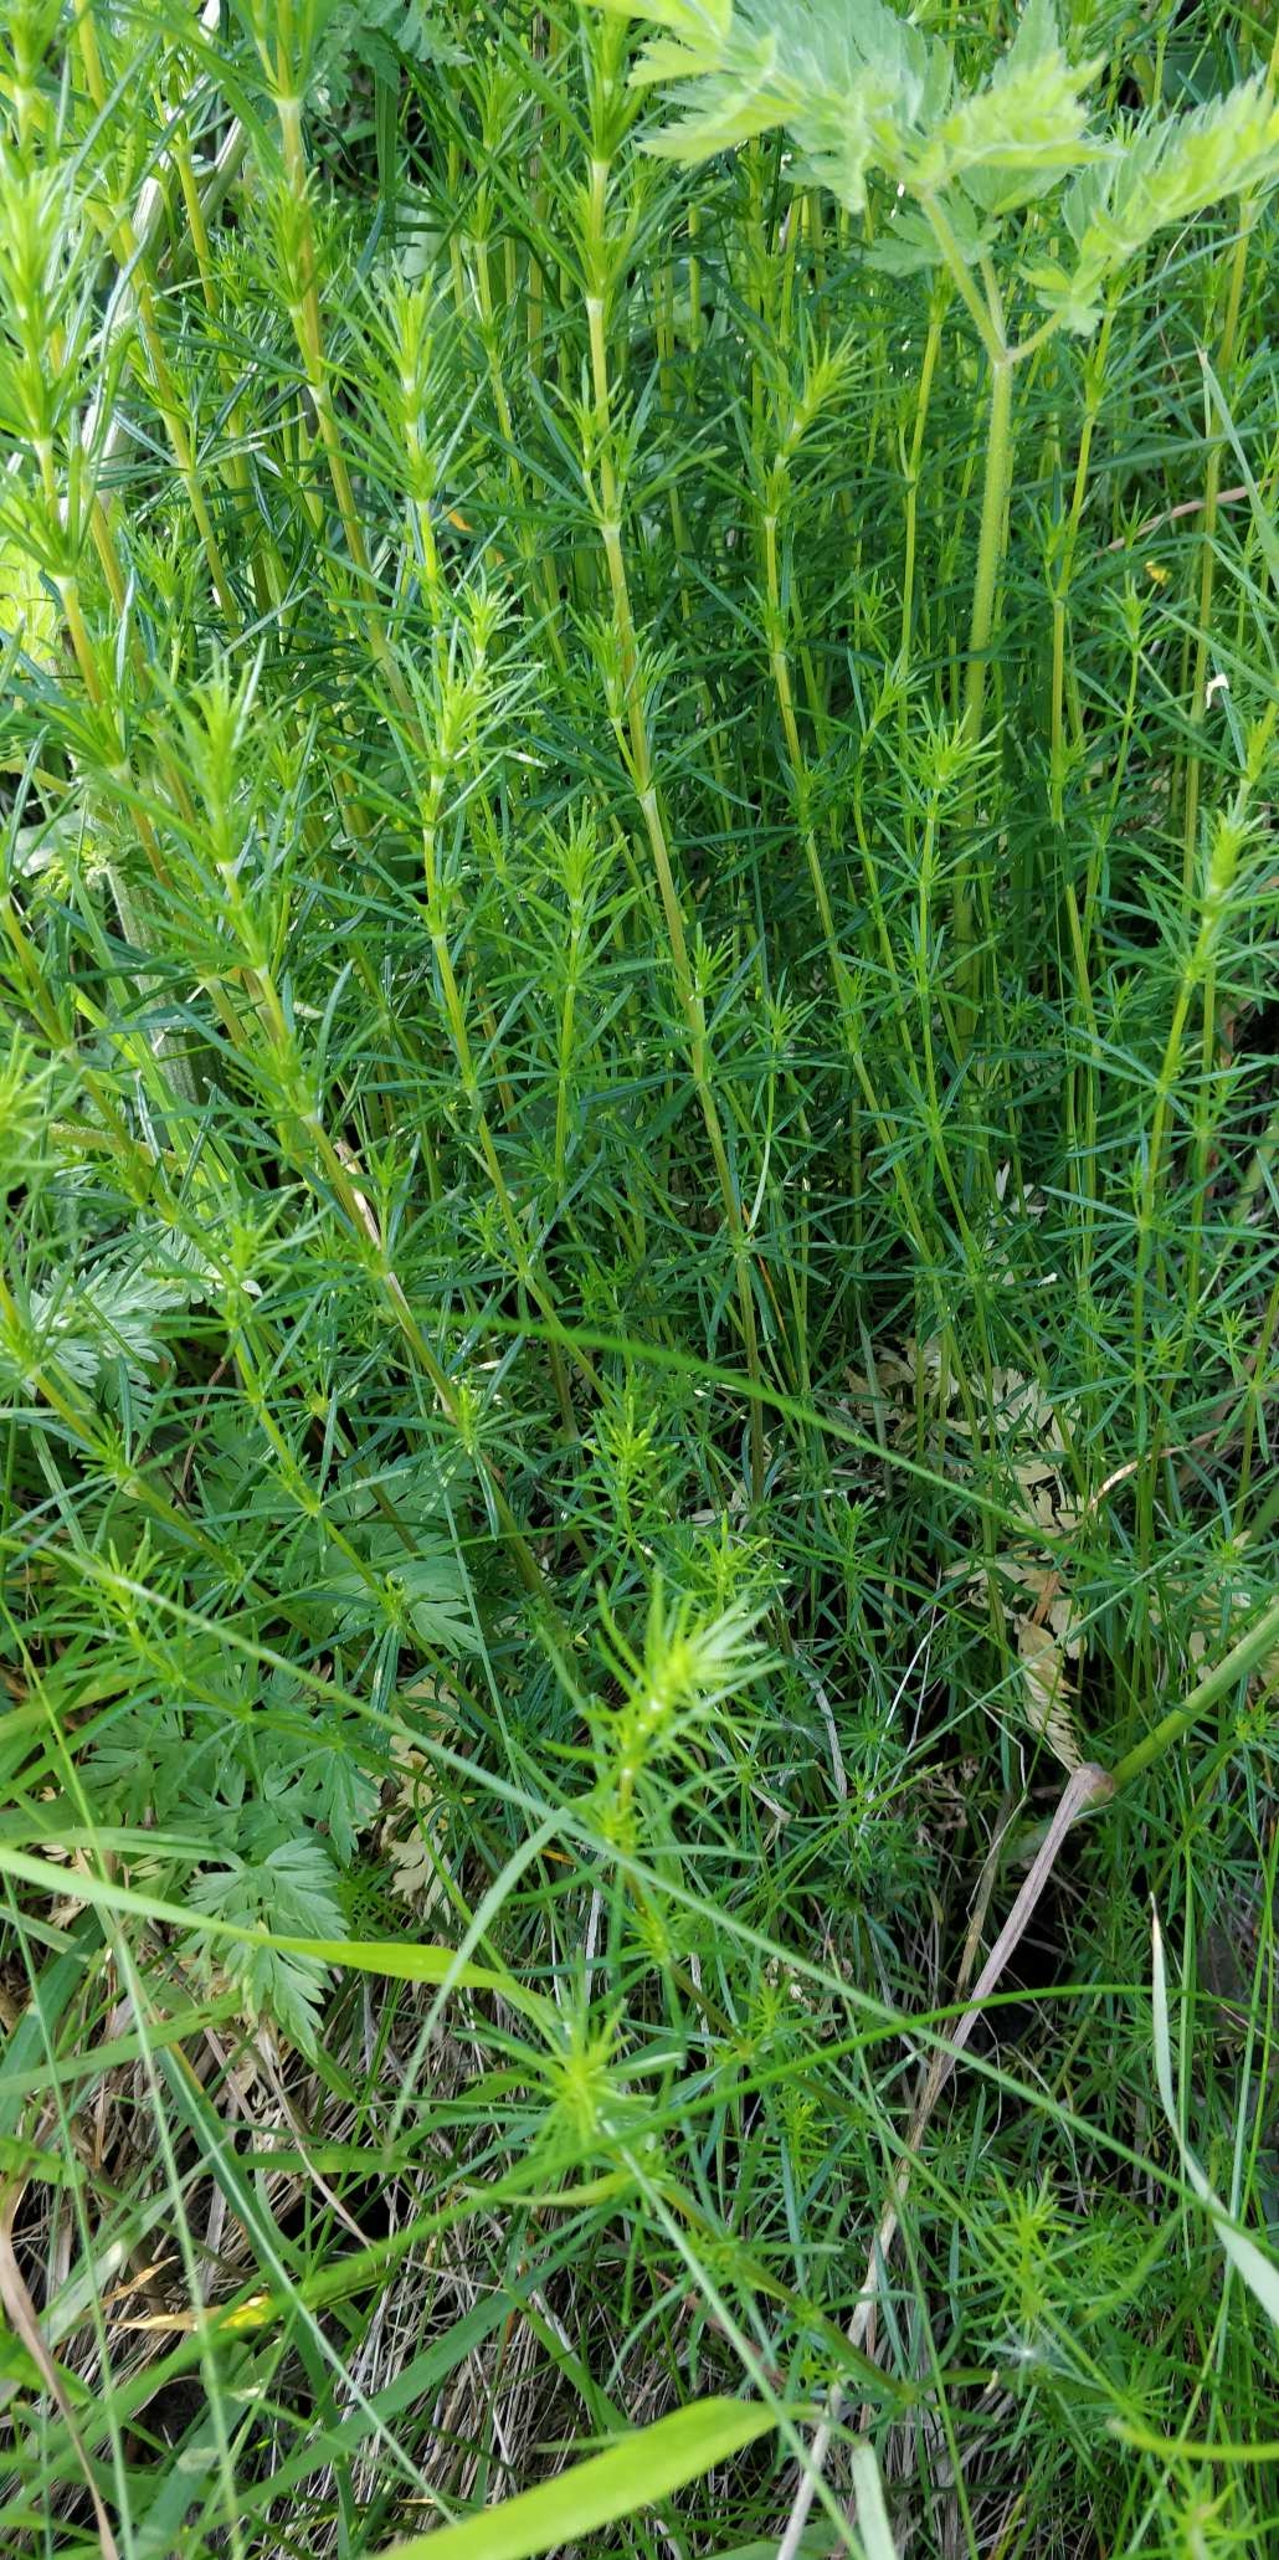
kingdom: Plantae
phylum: Tracheophyta
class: Magnoliopsida
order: Gentianales
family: Rubiaceae
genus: Galium
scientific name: Galium verum
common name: Gul snerre
